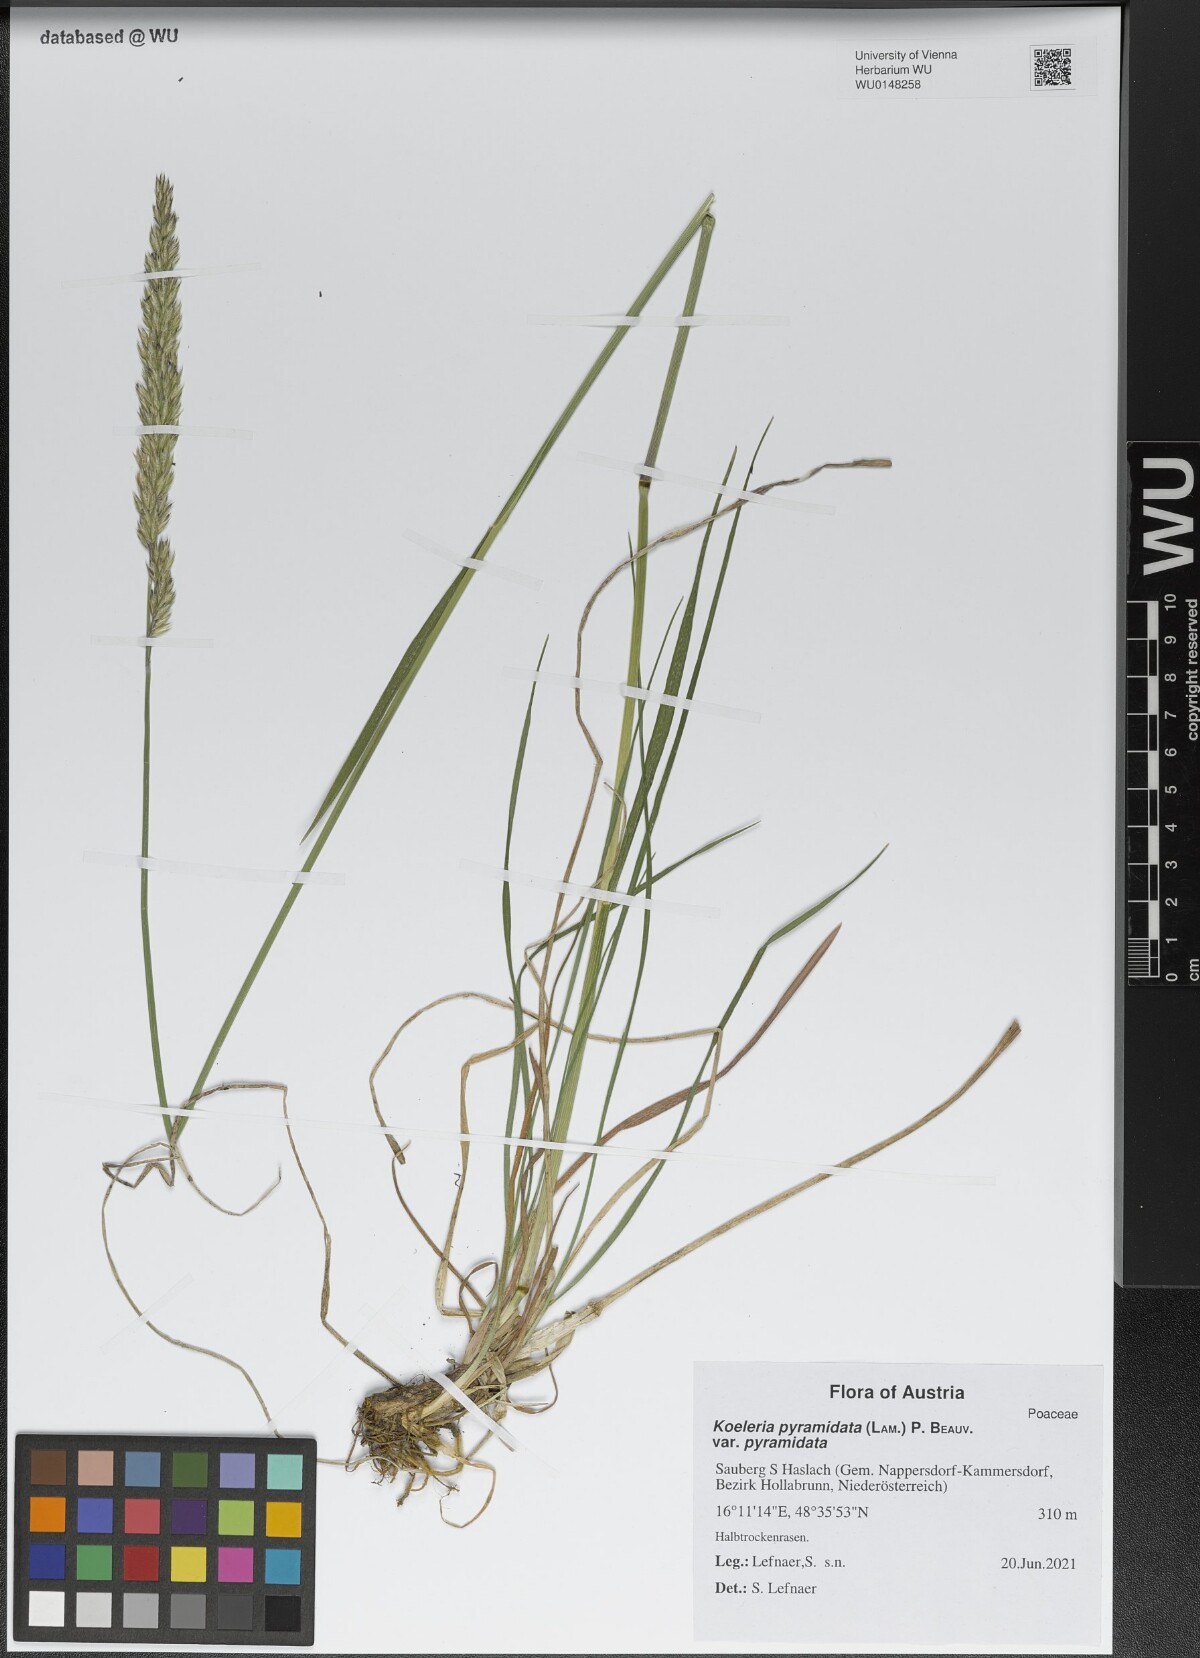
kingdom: Plantae
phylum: Tracheophyta
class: Liliopsida
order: Poales
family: Poaceae
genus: Koeleria
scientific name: Koeleria pyramidata
